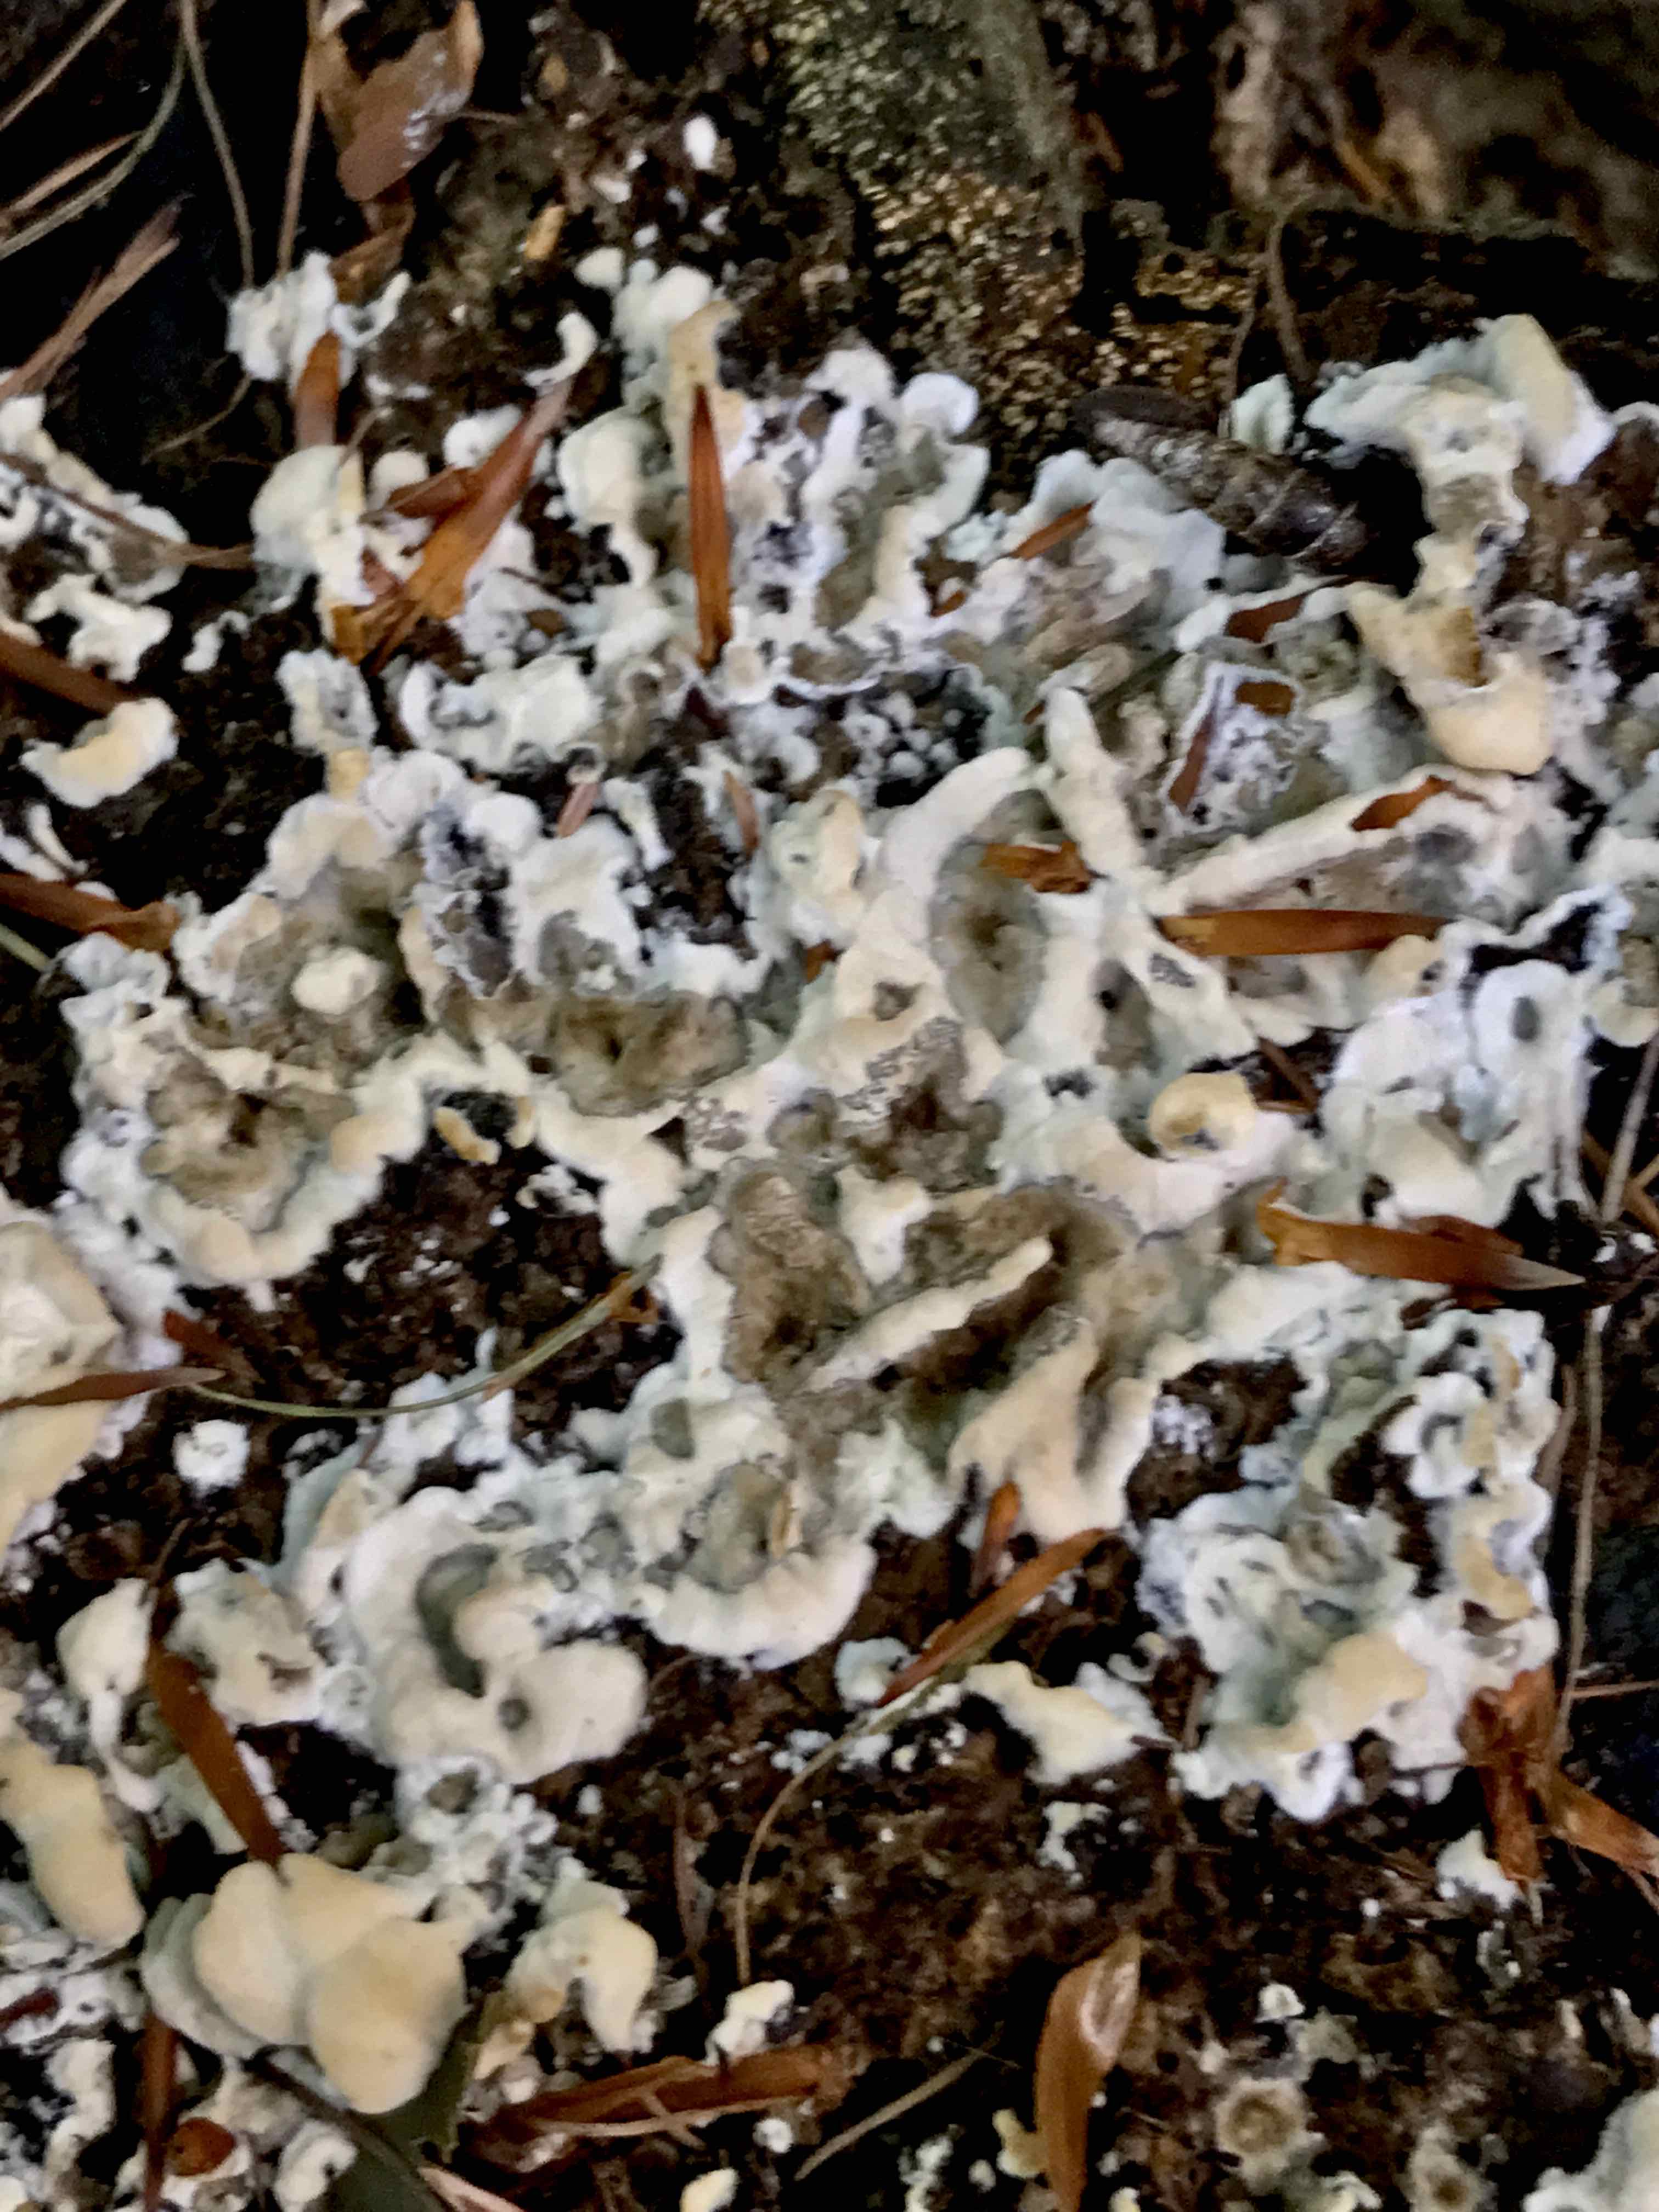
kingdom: Fungi
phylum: Ascomycota
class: Sordariomycetes
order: Xylariales
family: Xylariaceae
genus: Kretzschmaria
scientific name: Kretzschmaria deusta
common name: stor kulsvamp
